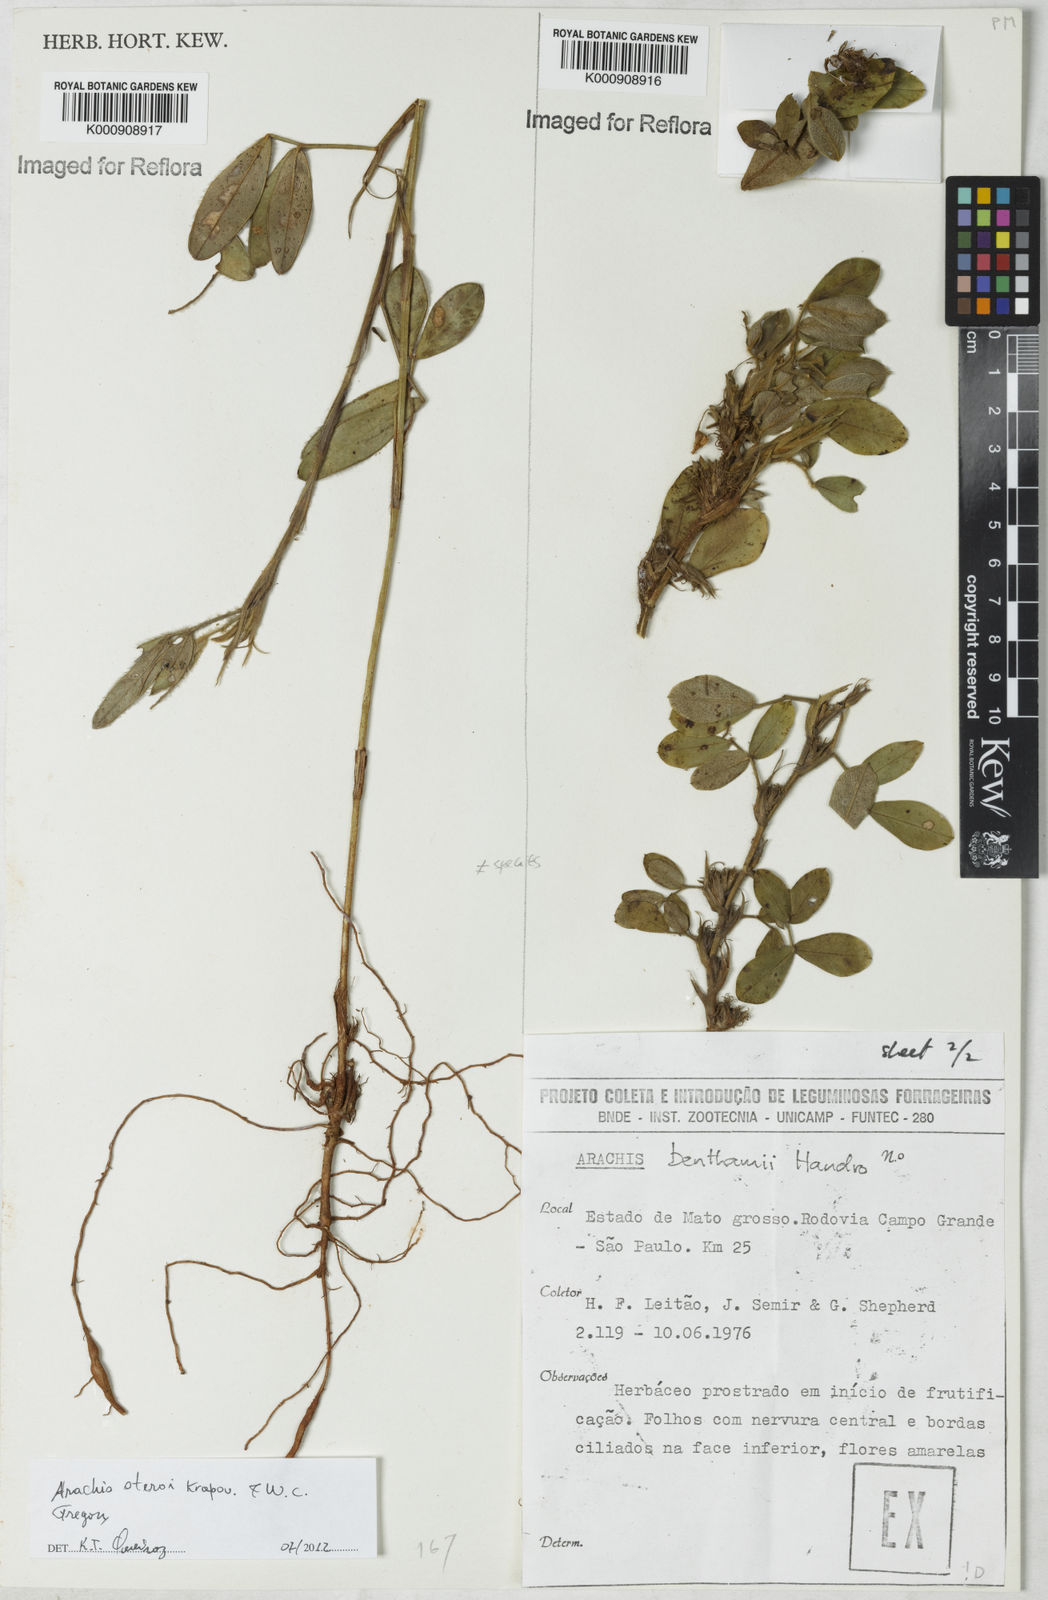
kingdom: Plantae
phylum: Tracheophyta
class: Magnoliopsida
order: Fabales
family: Fabaceae
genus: Arachis
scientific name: Arachis benthamii
